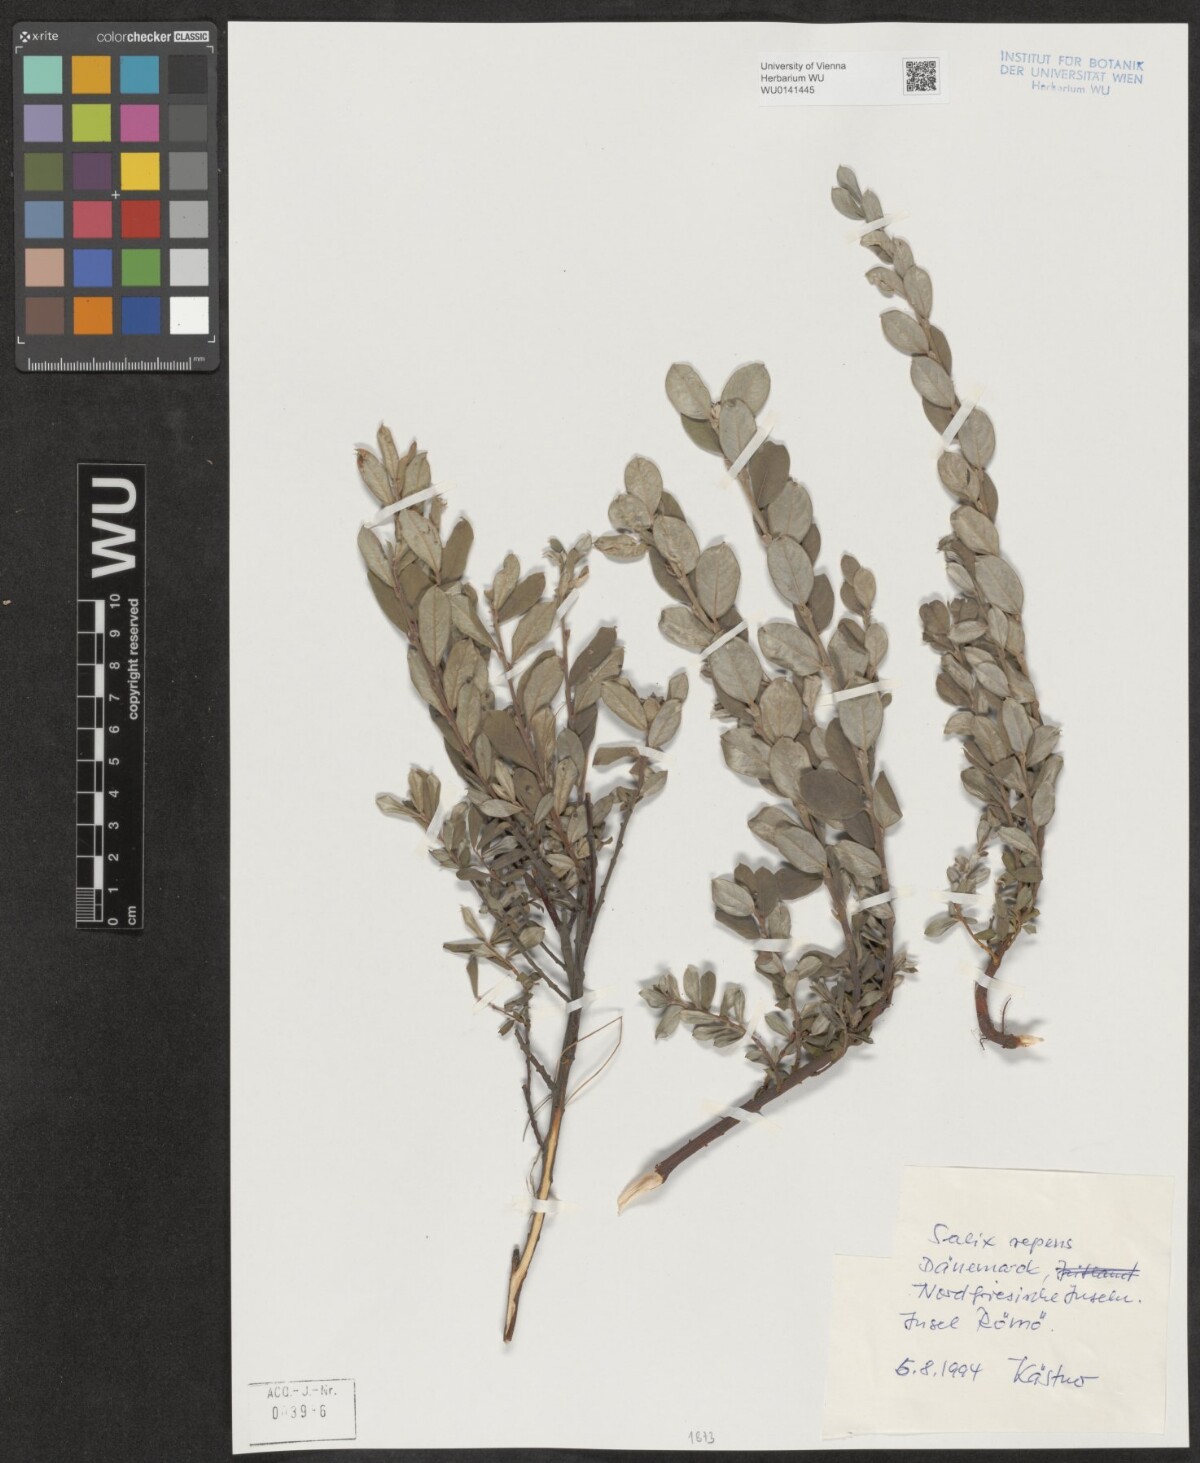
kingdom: Plantae
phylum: Tracheophyta
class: Magnoliopsida
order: Malpighiales
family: Salicaceae
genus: Salix
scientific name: Salix repens
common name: Creeping willow
